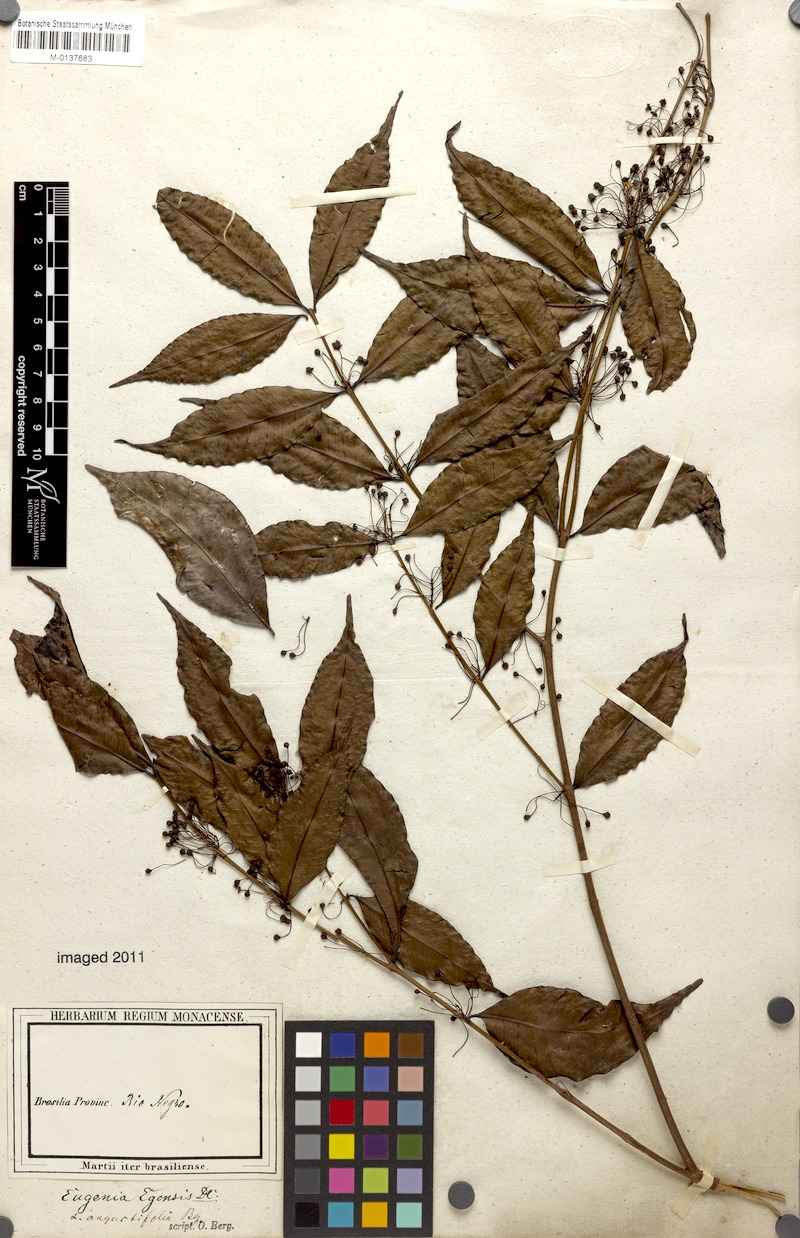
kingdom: Plantae
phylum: Tracheophyta
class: Magnoliopsida
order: Myrtales
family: Myrtaceae
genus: Eugenia
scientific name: Eugenia egensis
